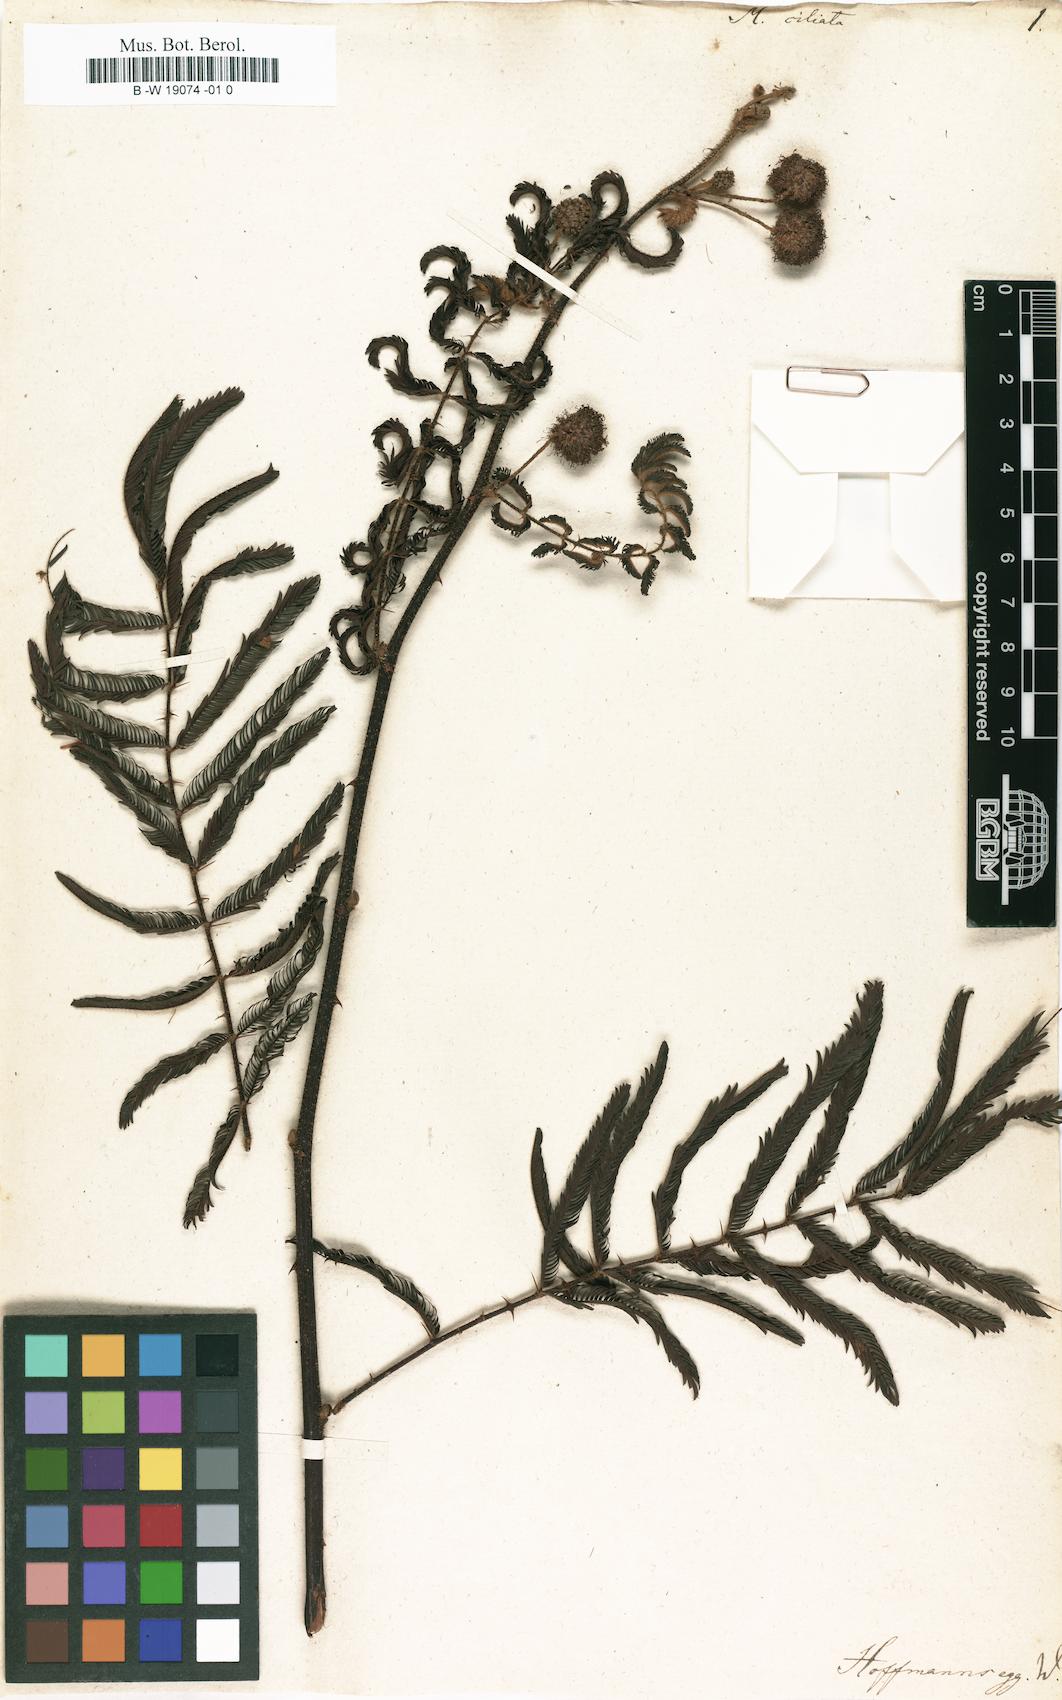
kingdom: Plantae
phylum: Tracheophyta
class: Magnoliopsida
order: Fabales
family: Fabaceae
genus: Mimosa
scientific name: Mimosa pigra
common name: Black mimosa
